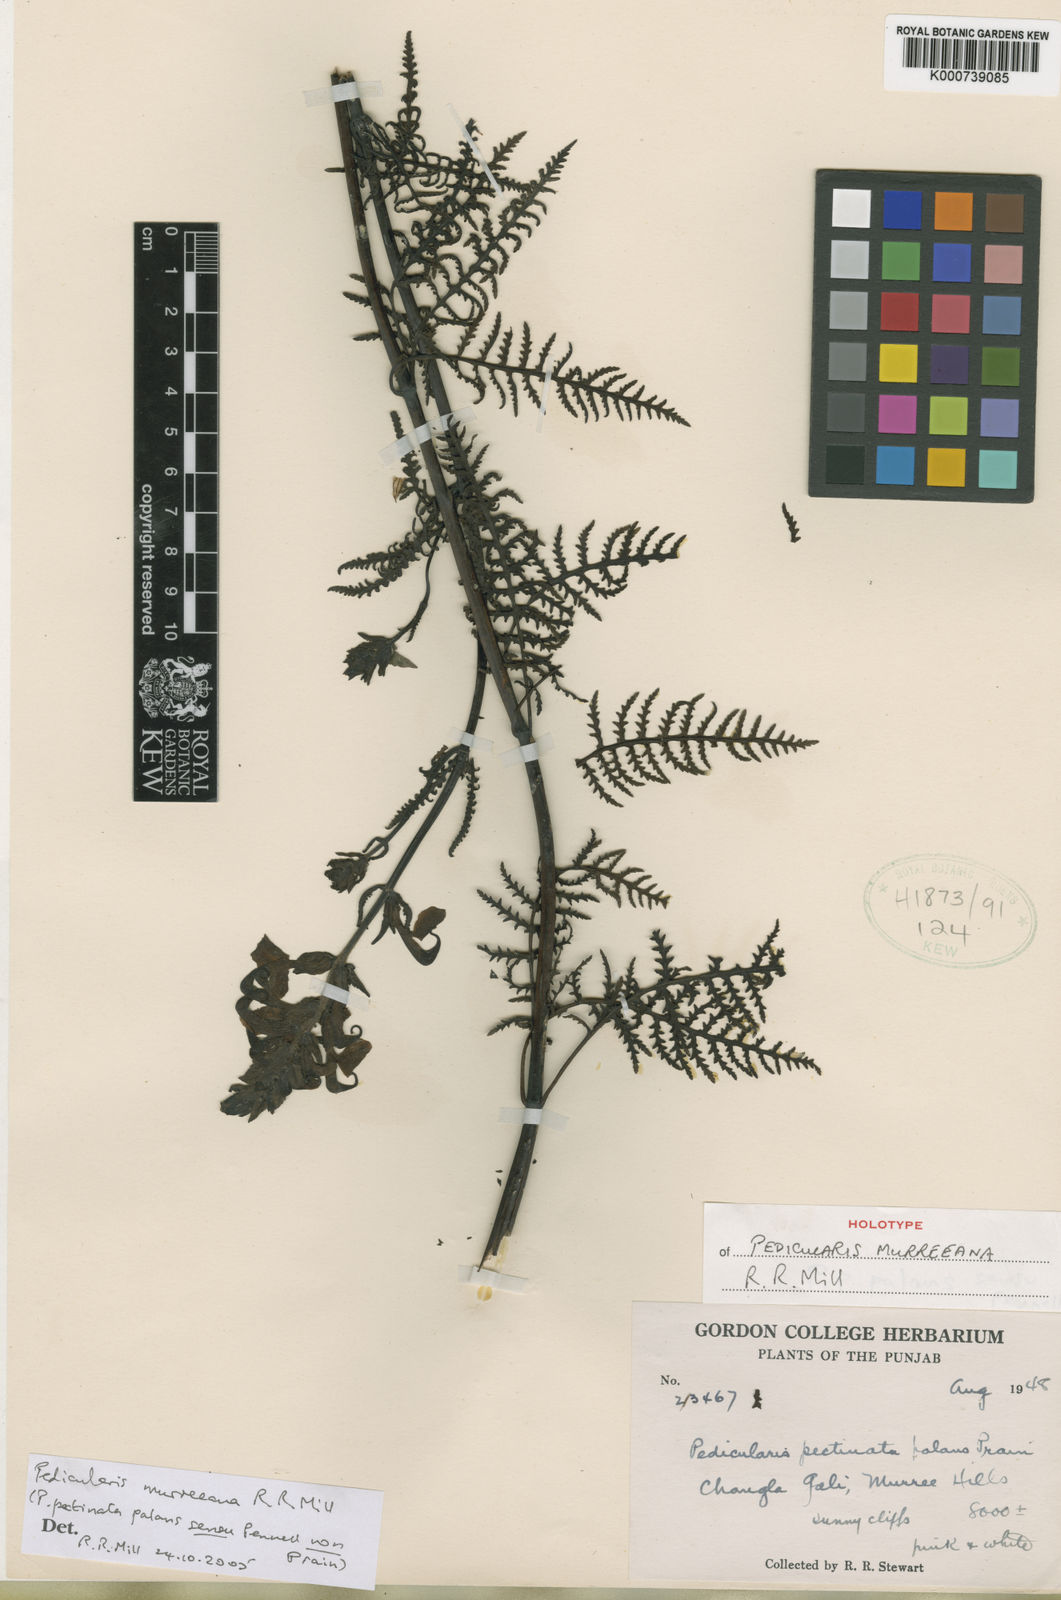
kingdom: Plantae
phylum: Tracheophyta
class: Magnoliopsida
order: Lamiales
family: Orobanchaceae
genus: Pedicularis
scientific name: Pedicularis
